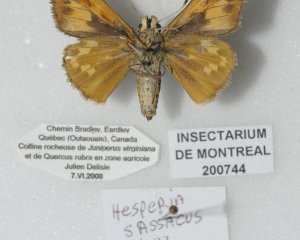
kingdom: Animalia
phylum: Arthropoda
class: Insecta
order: Lepidoptera
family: Hesperiidae
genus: Hesperia
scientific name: Hesperia sassacus
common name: Sassacus Skipper
